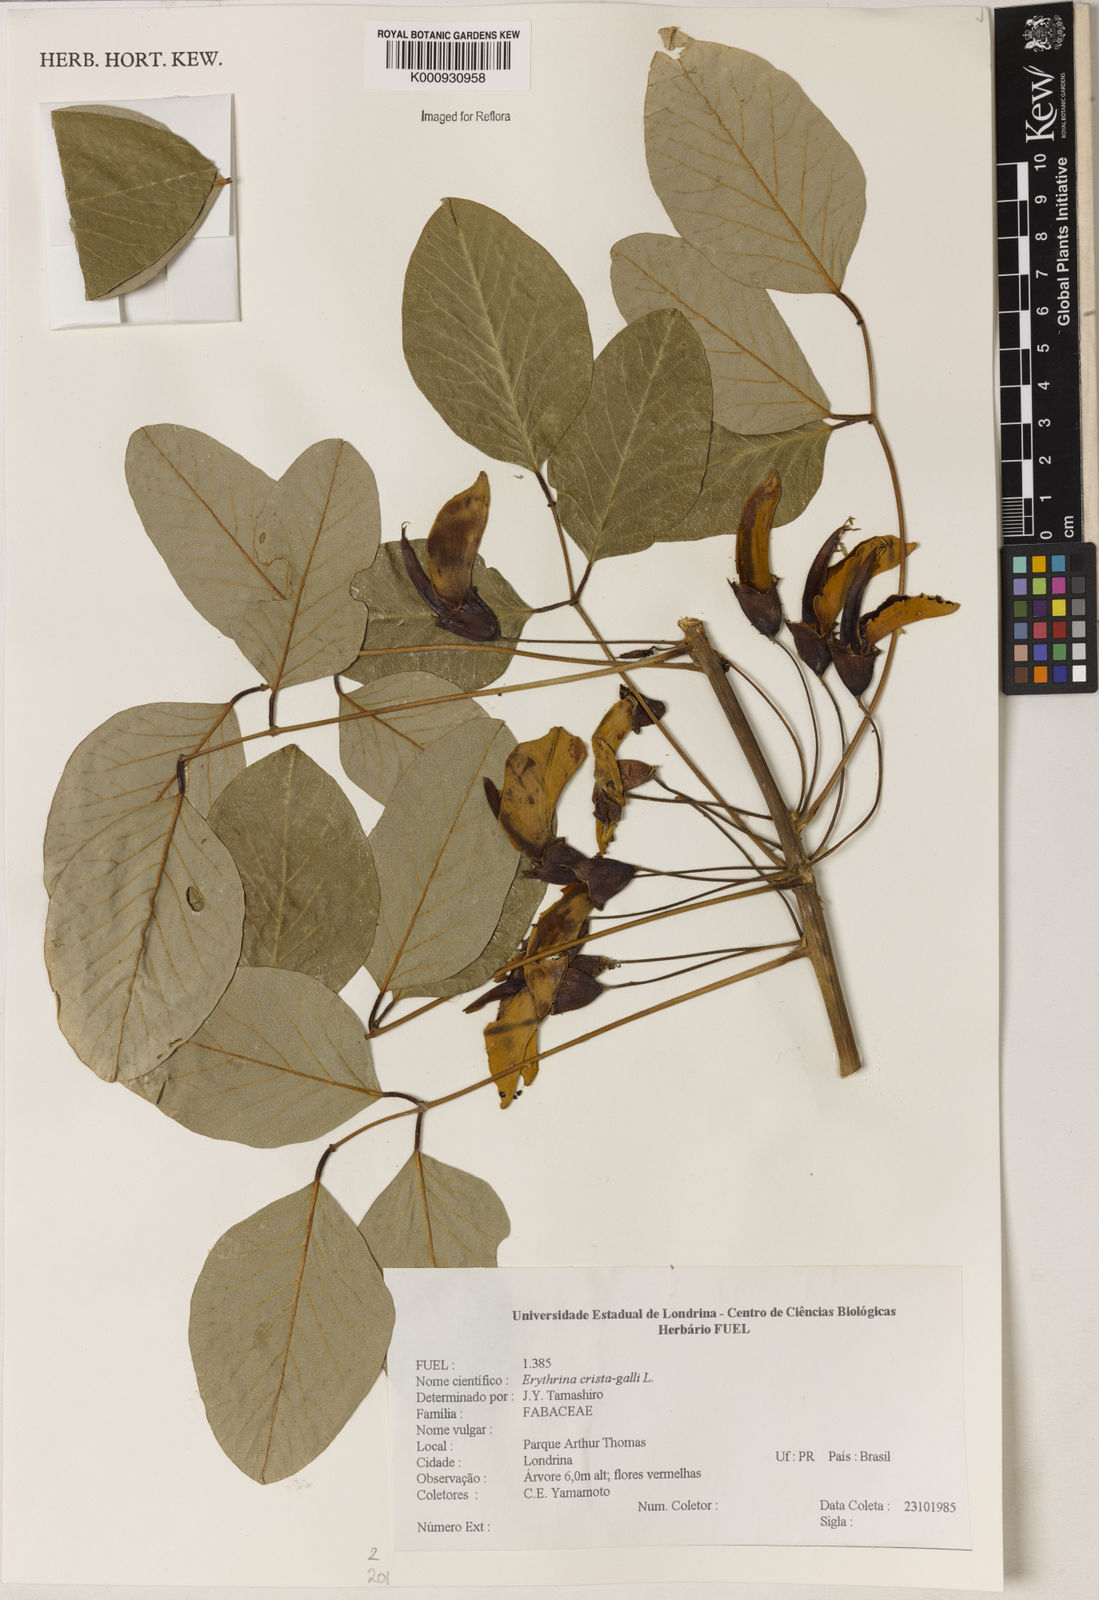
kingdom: Plantae
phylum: Tracheophyta
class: Magnoliopsida
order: Fabales
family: Fabaceae
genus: Erythrina
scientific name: Erythrina crista-galli
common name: Cockspur coral tree
